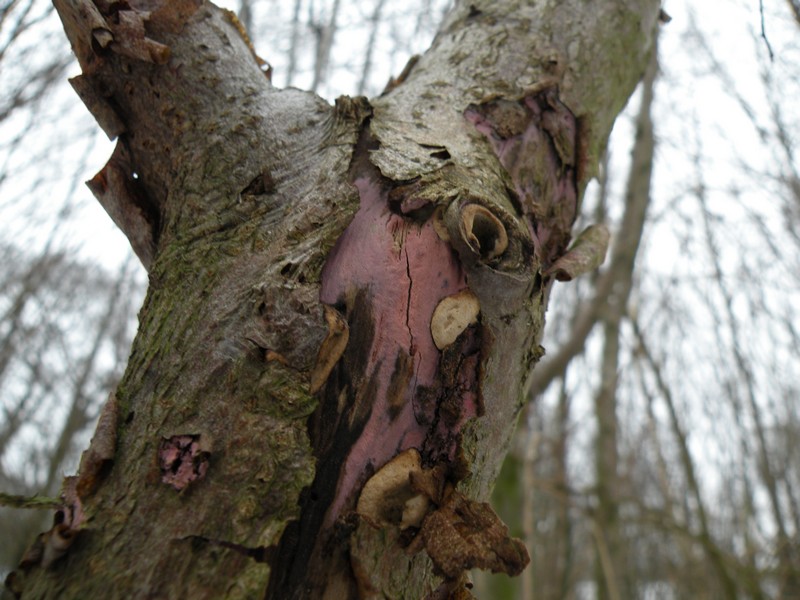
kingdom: Fungi
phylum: Basidiomycota
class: Agaricomycetes
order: Cantharellales
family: Tulasnellaceae
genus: Tulasnella
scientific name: Tulasnella violea
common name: violet ballonhinde
